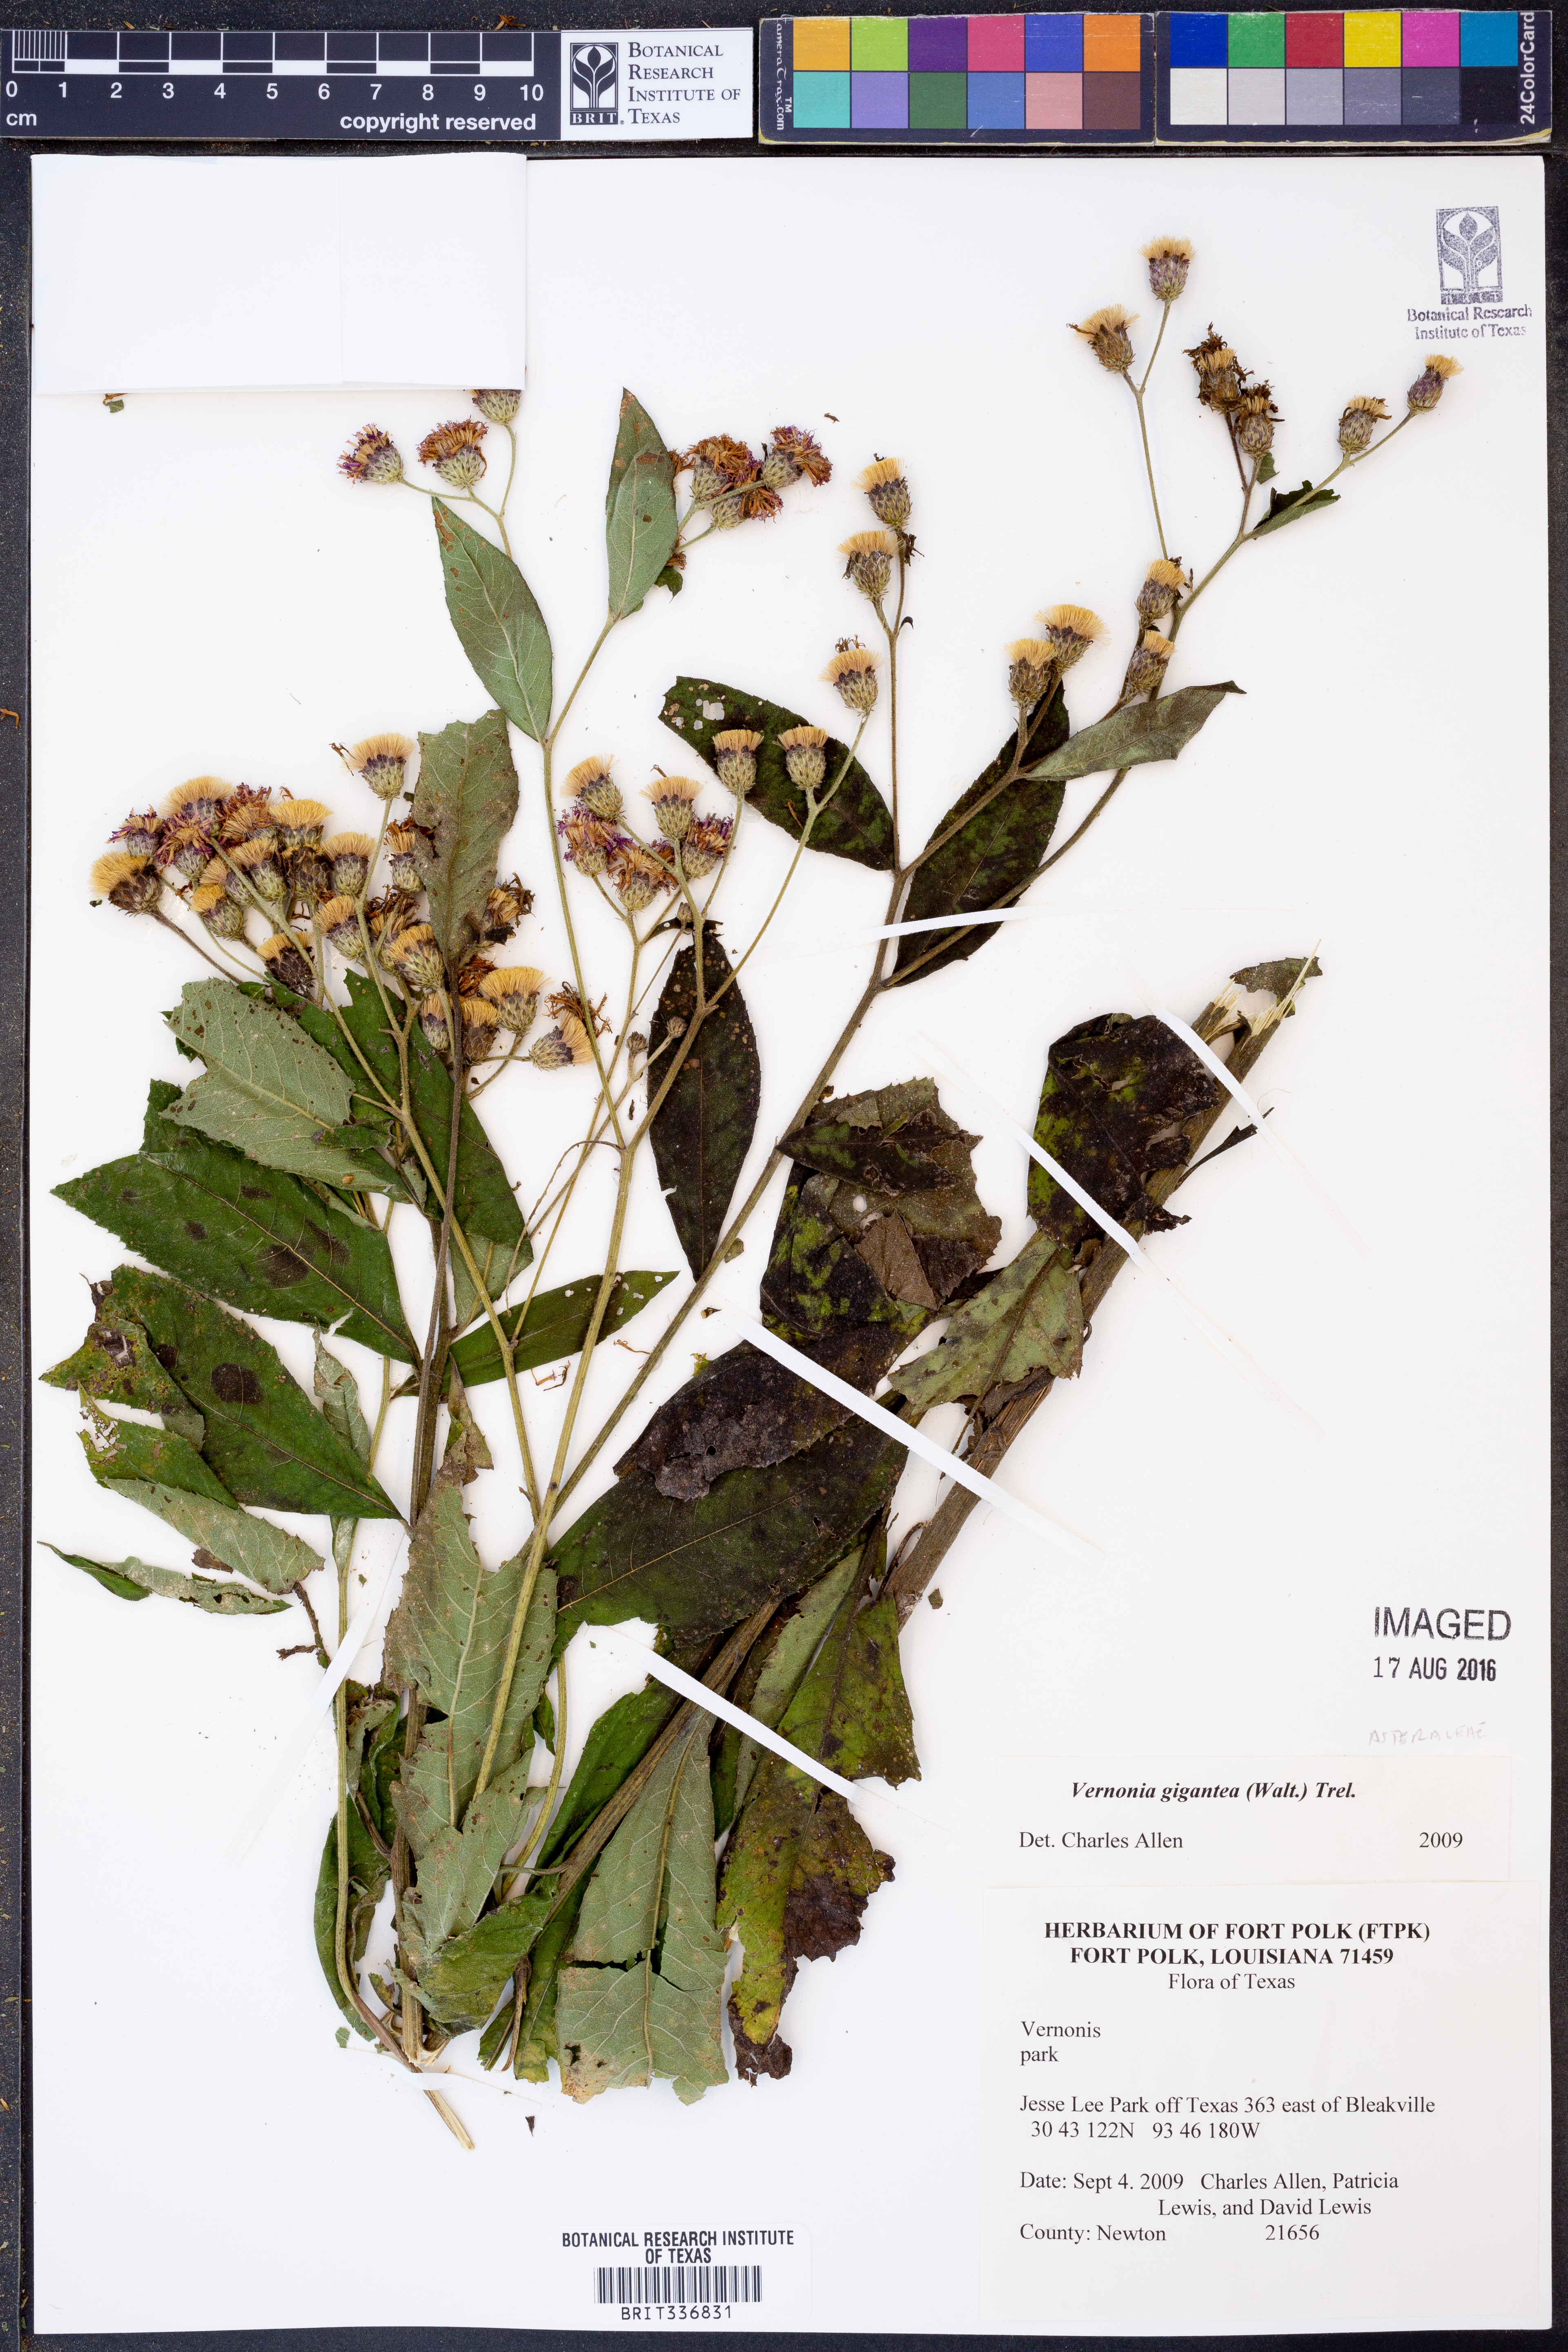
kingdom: Plantae
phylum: Tracheophyta
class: Magnoliopsida
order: Asterales
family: Asteraceae
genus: Vernonia
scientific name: Vernonia gigantea
